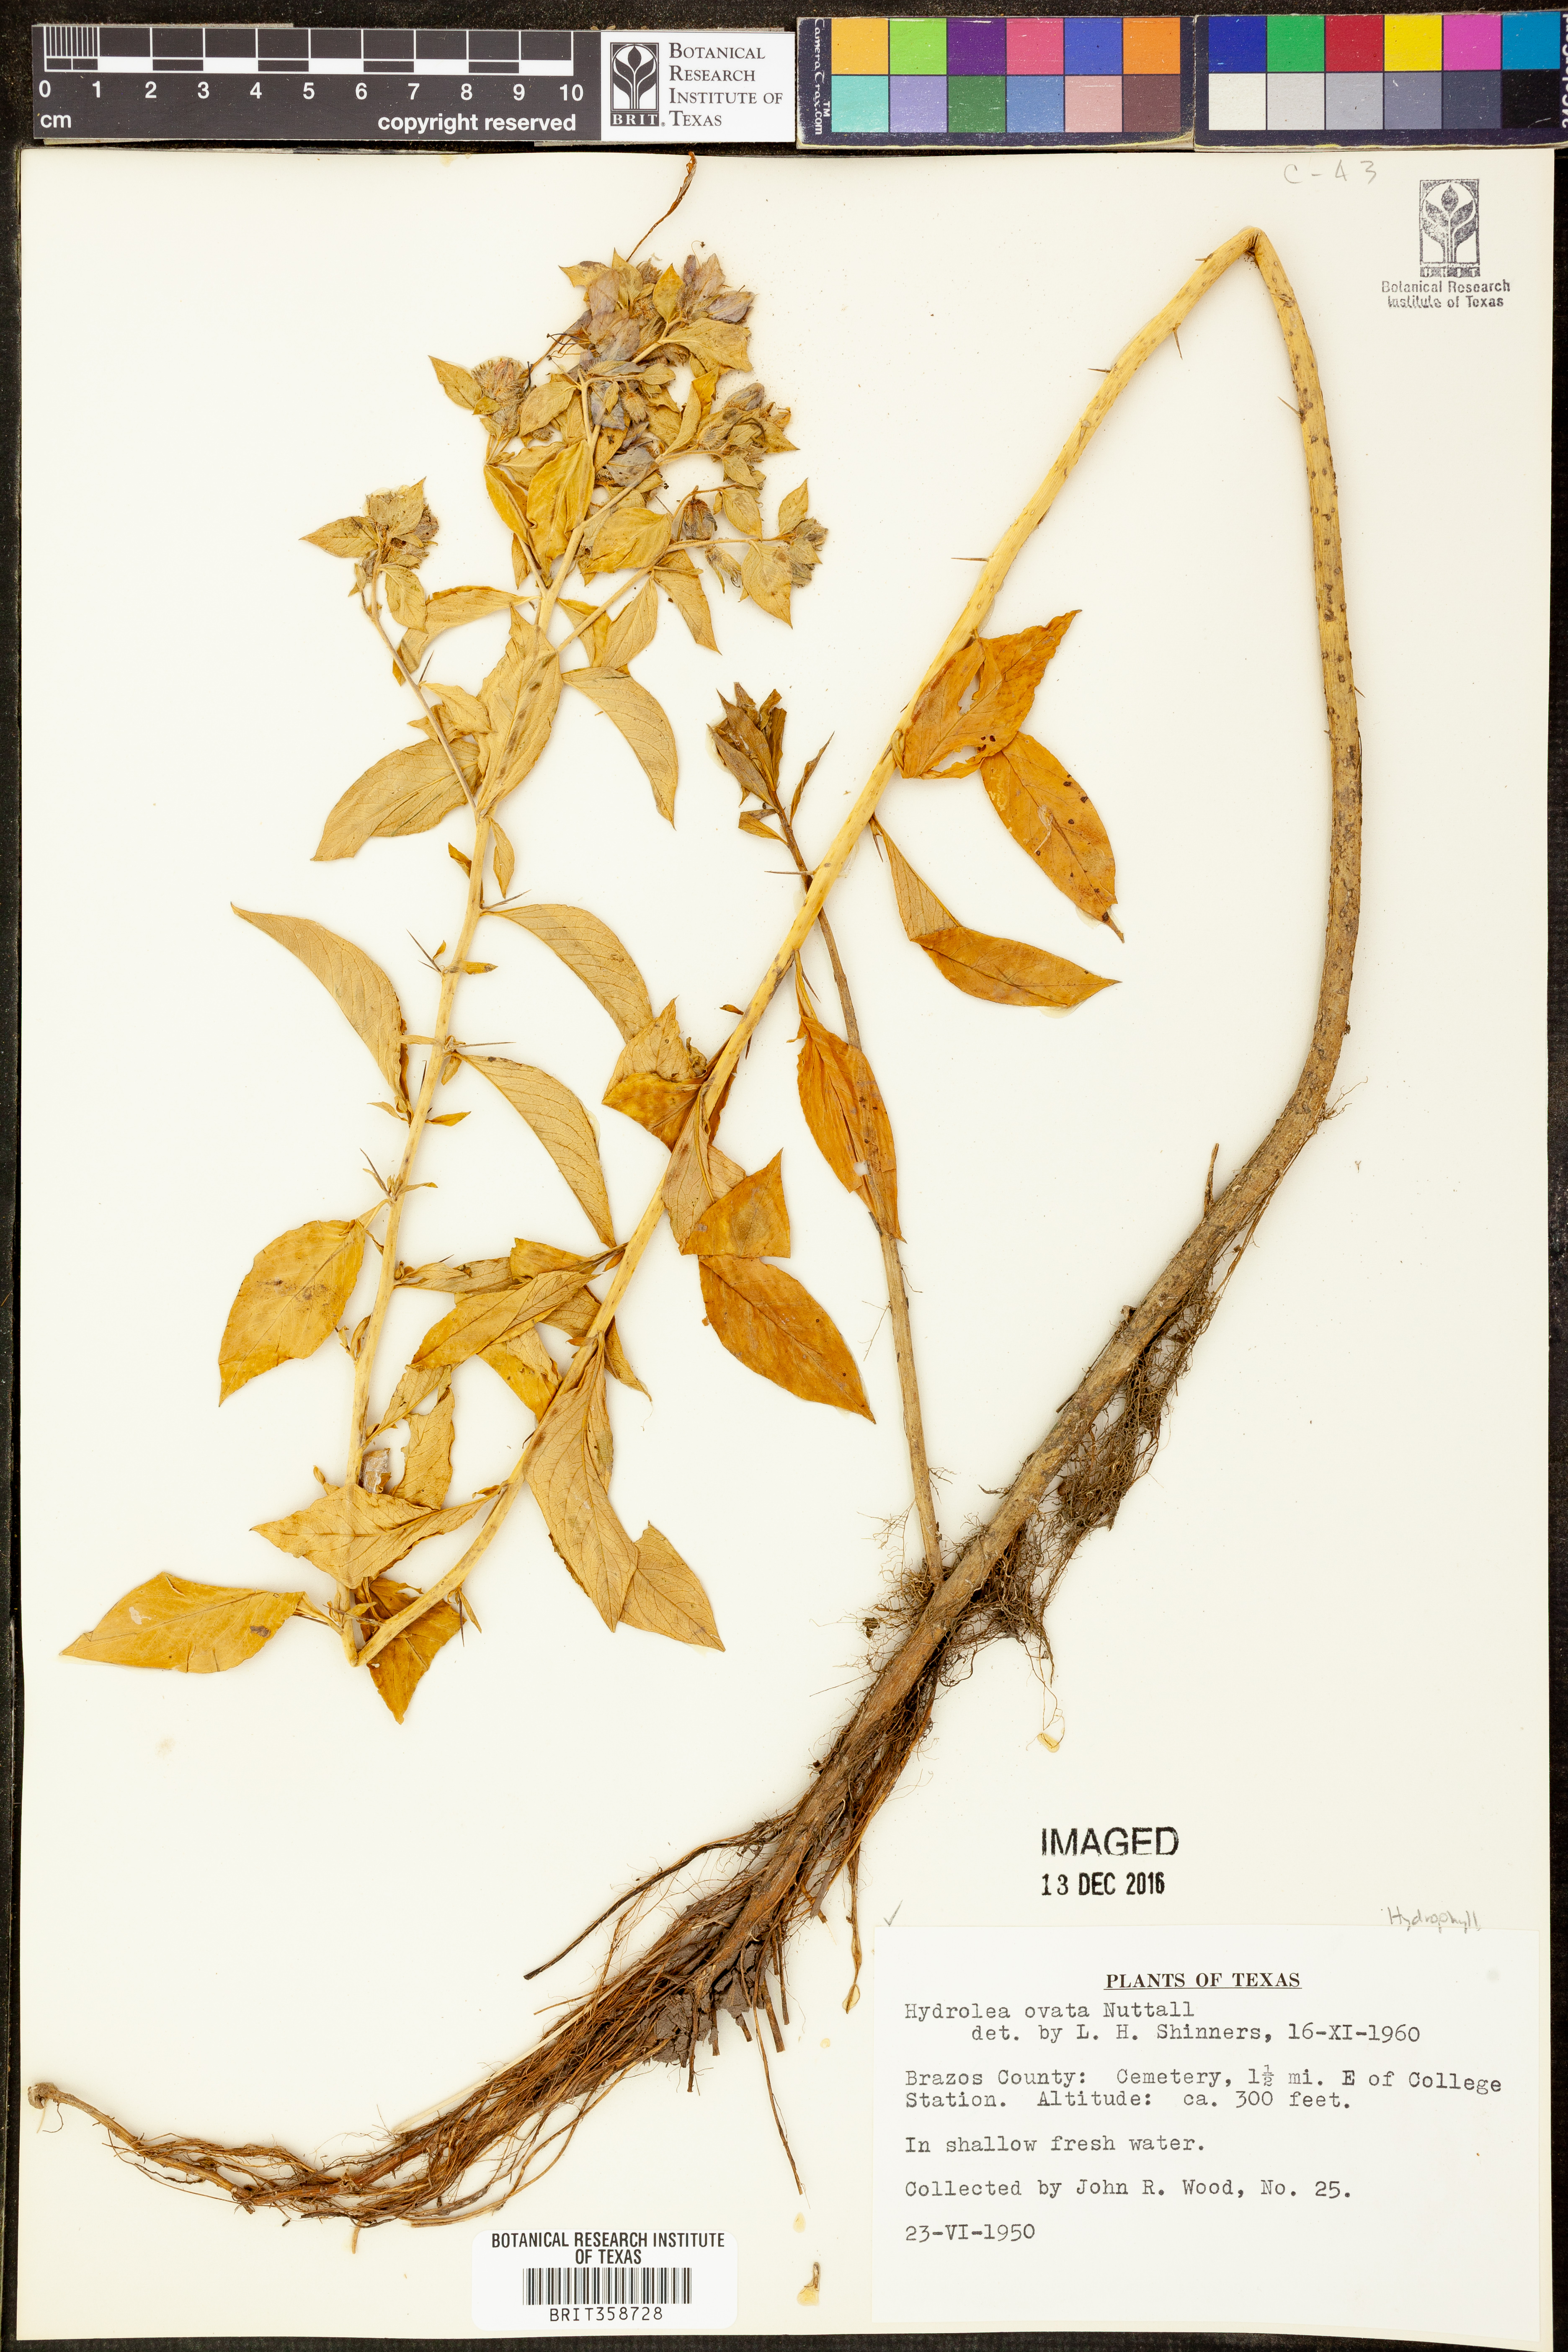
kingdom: Plantae
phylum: Tracheophyta
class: Magnoliopsida
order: Solanales
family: Hydroleaceae
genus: Hydrolea
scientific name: Hydrolea ovata
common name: Ovate false fiddleleaf
